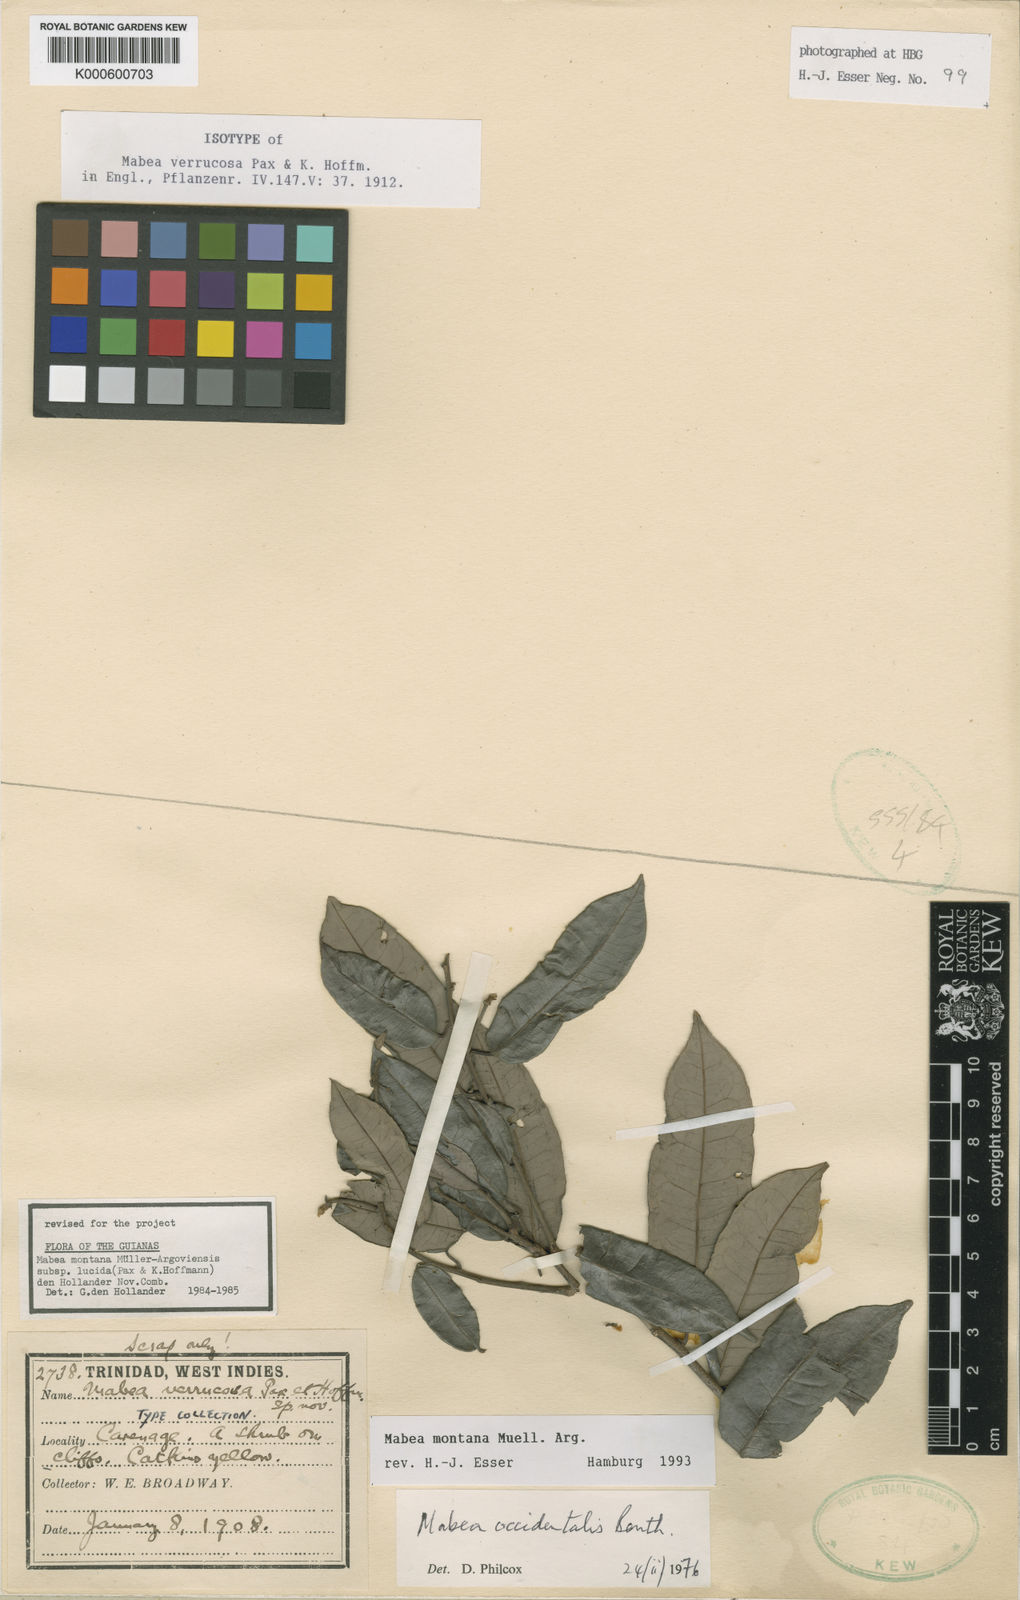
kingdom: Plantae
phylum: Tracheophyta
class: Magnoliopsida
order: Malpighiales
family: Euphorbiaceae
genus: Mabea
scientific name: Mabea
